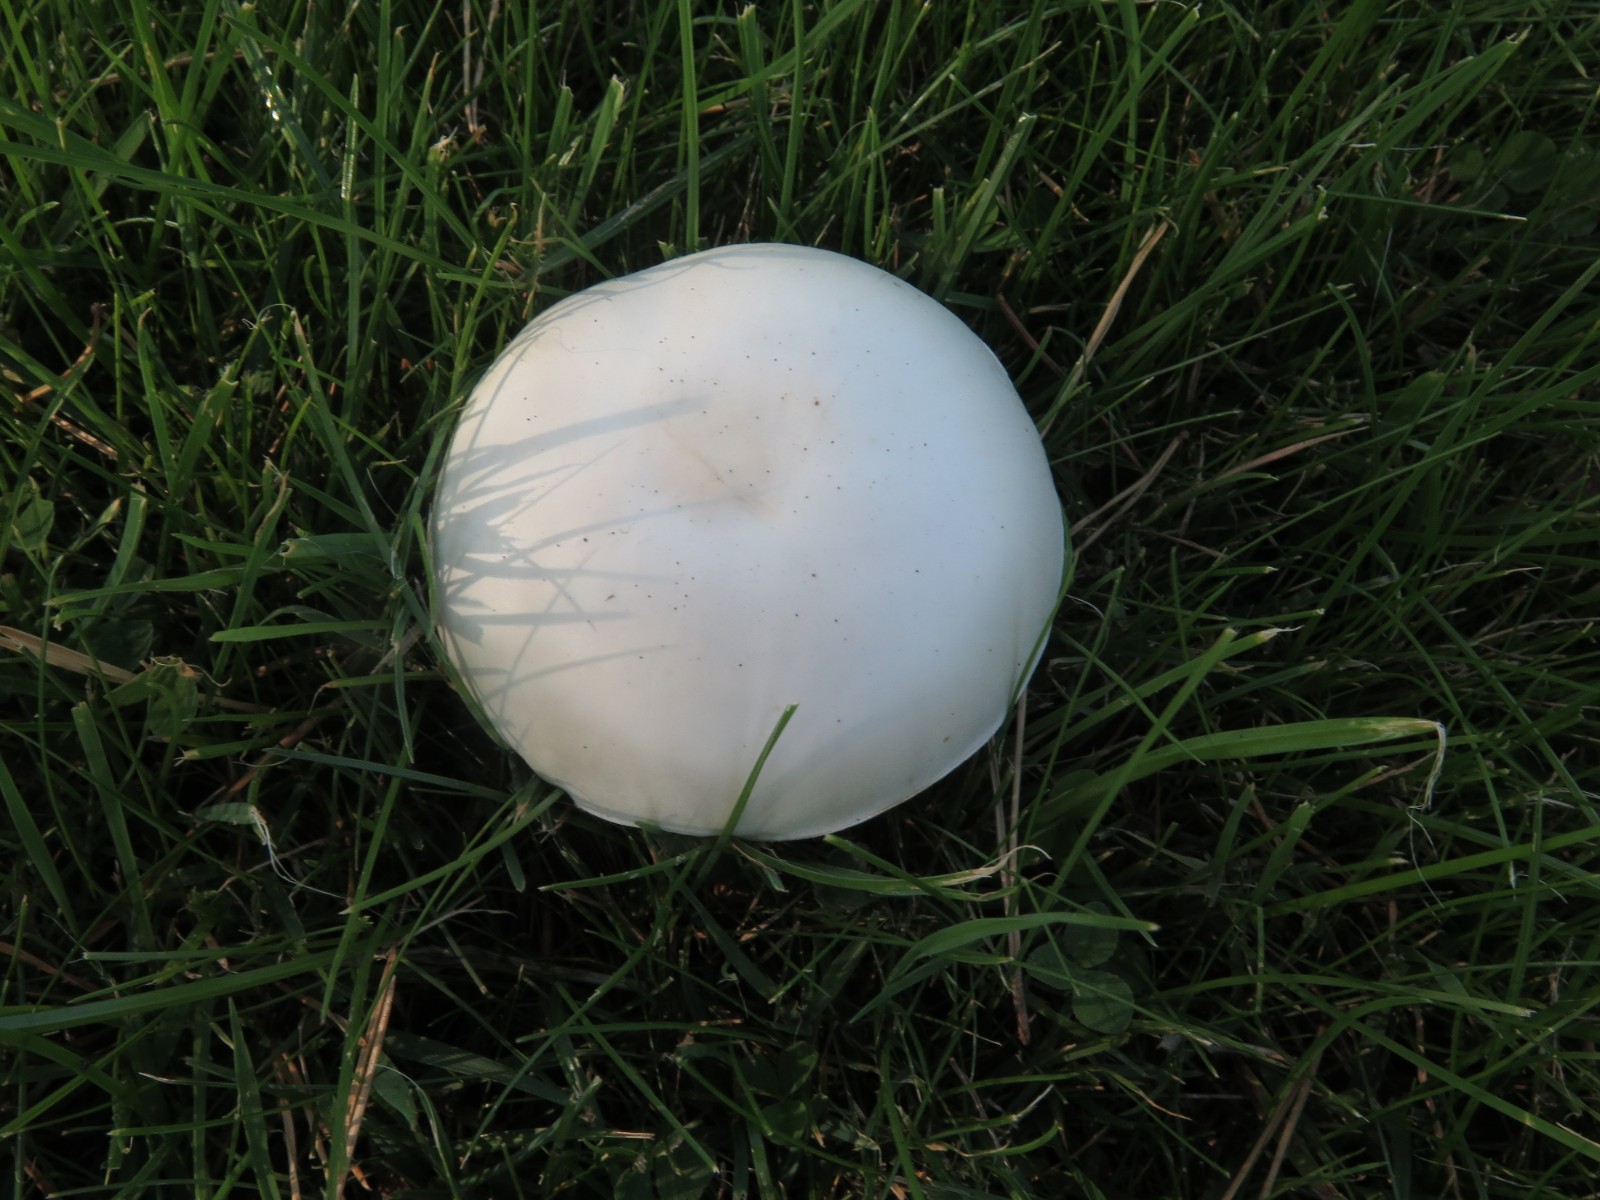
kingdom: Fungi
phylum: Basidiomycota
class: Agaricomycetes
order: Agaricales
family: Agaricaceae
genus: Leucoagaricus
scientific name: Leucoagaricus leucothites
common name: rosabladet silkehat
